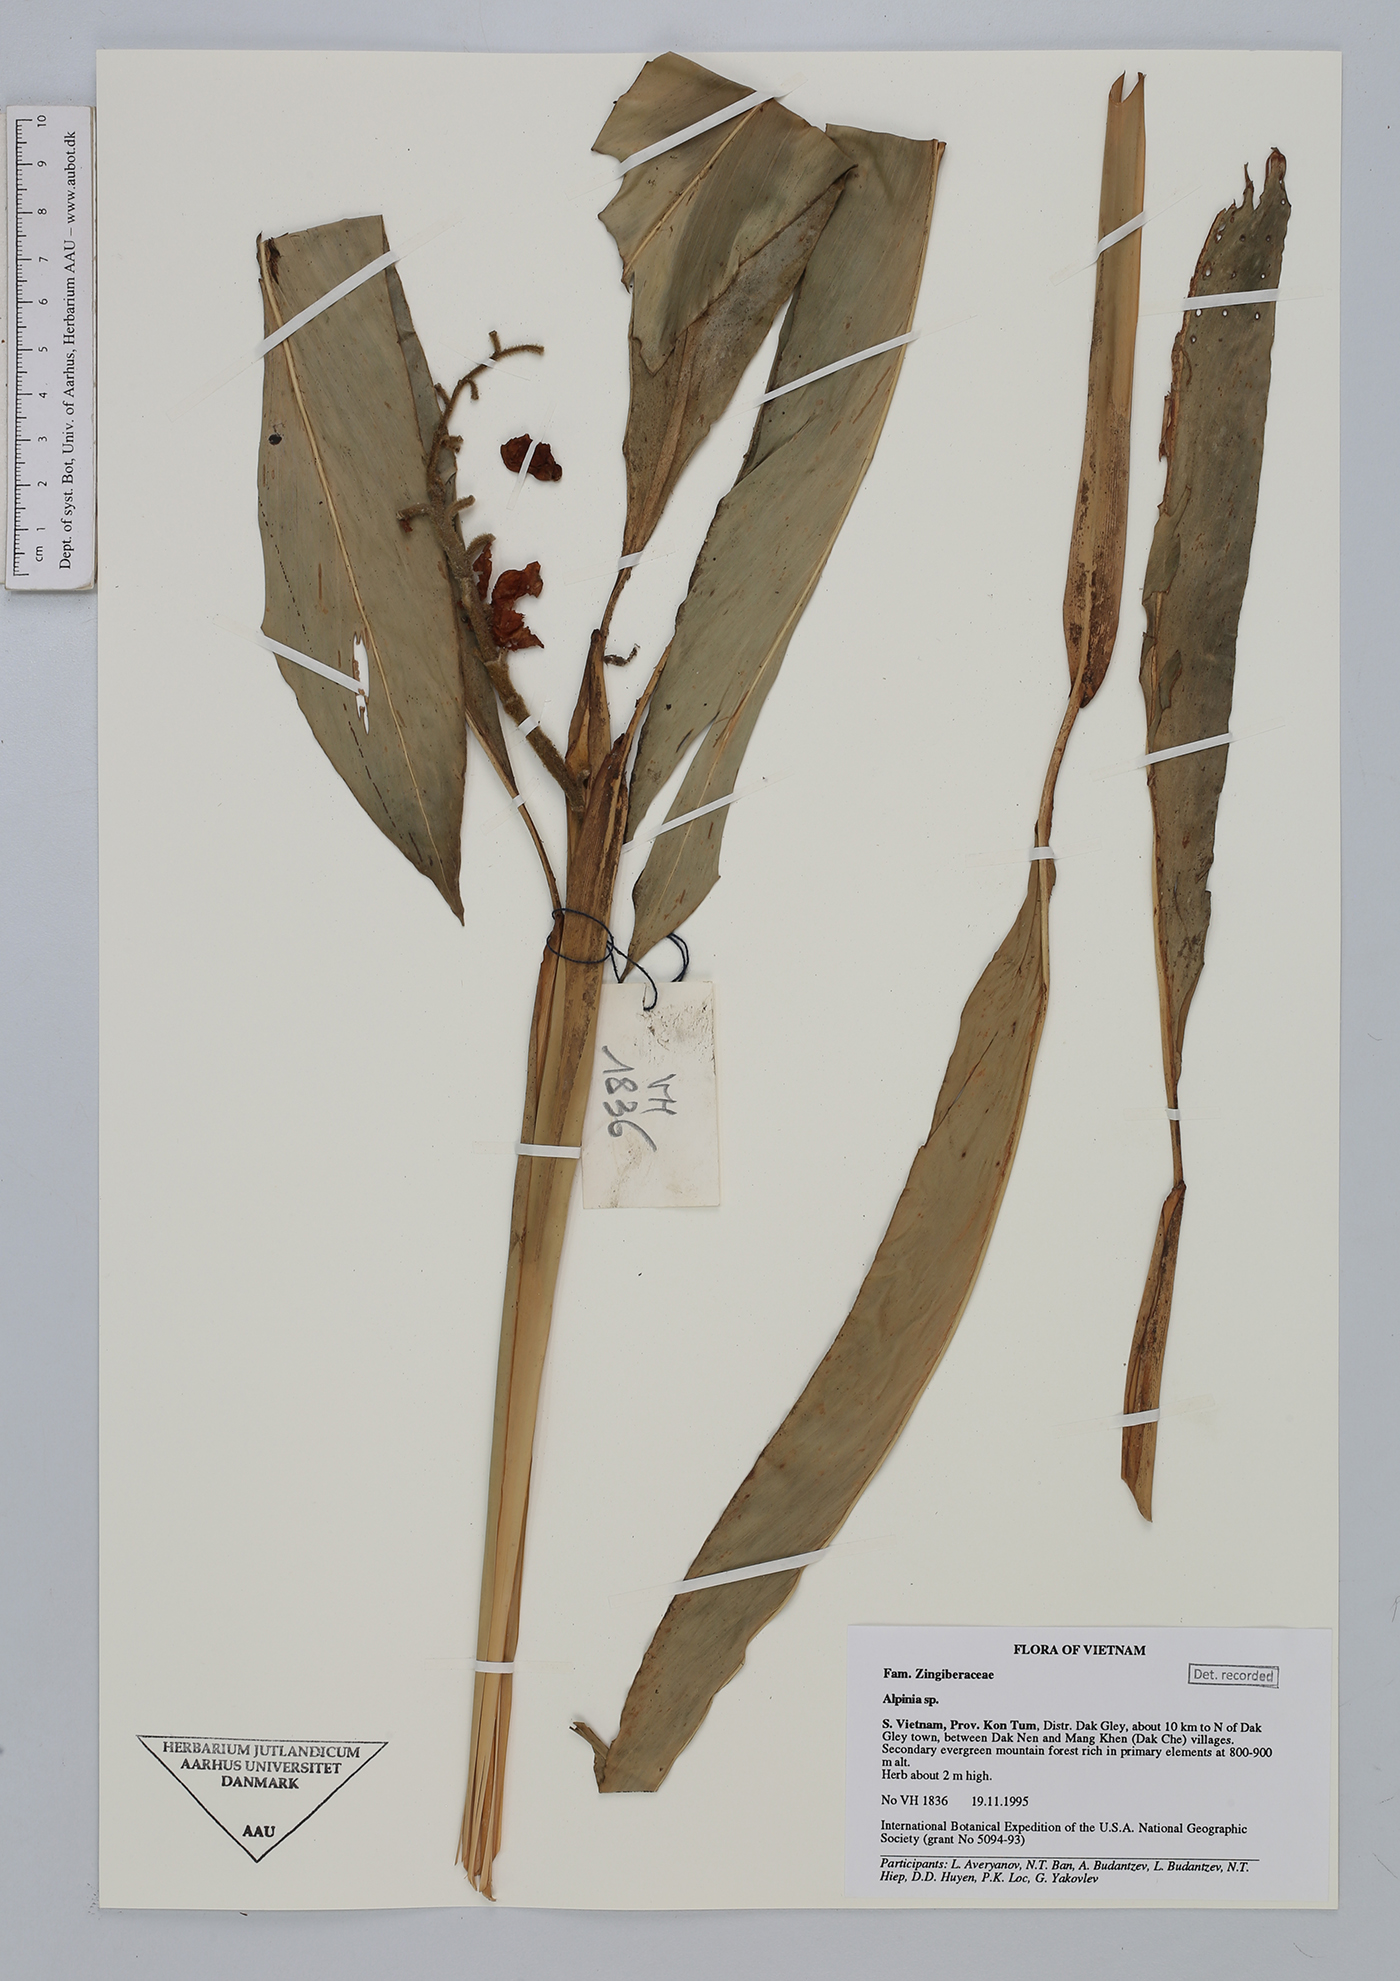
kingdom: Plantae
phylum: Tracheophyta
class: Liliopsida
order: Zingiberales
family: Zingiberaceae
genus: Alpinia
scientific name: Alpinia
